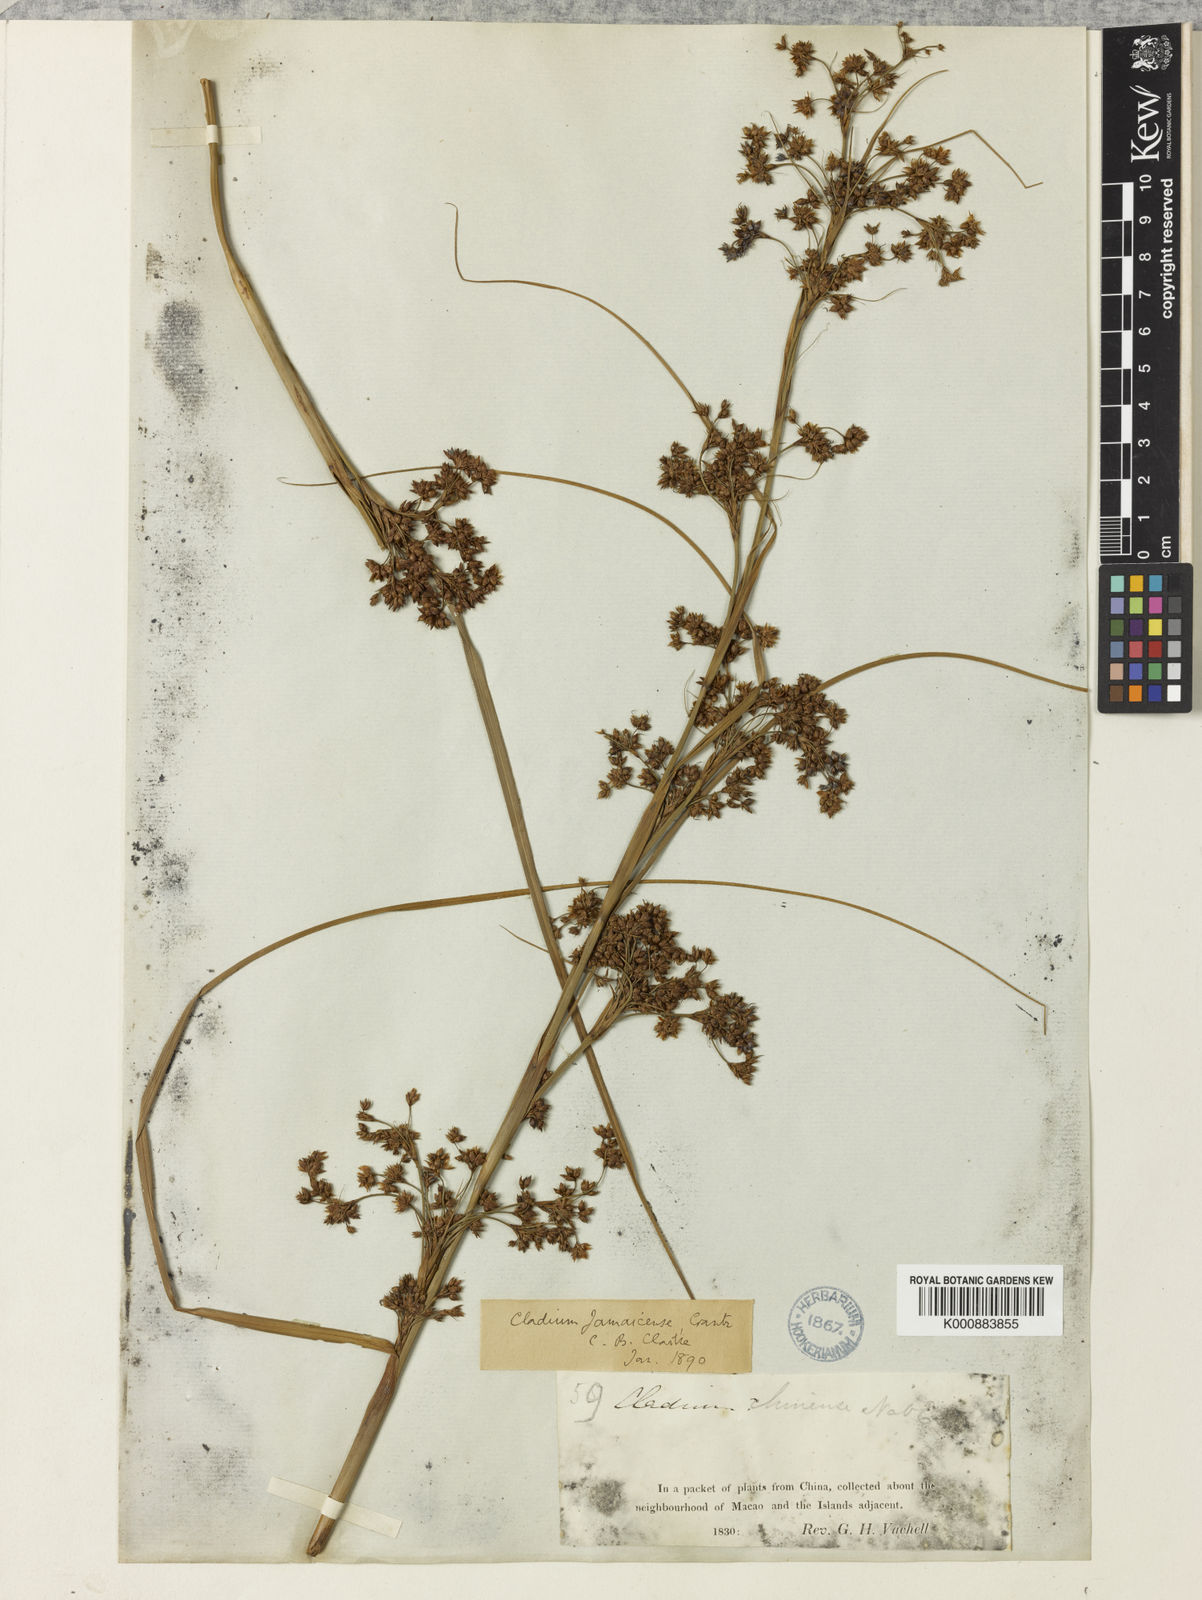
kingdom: Plantae
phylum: Tracheophyta
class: Liliopsida
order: Poales
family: Cyperaceae
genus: Cladium
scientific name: Cladium mariscus
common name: Great fen-sedge
